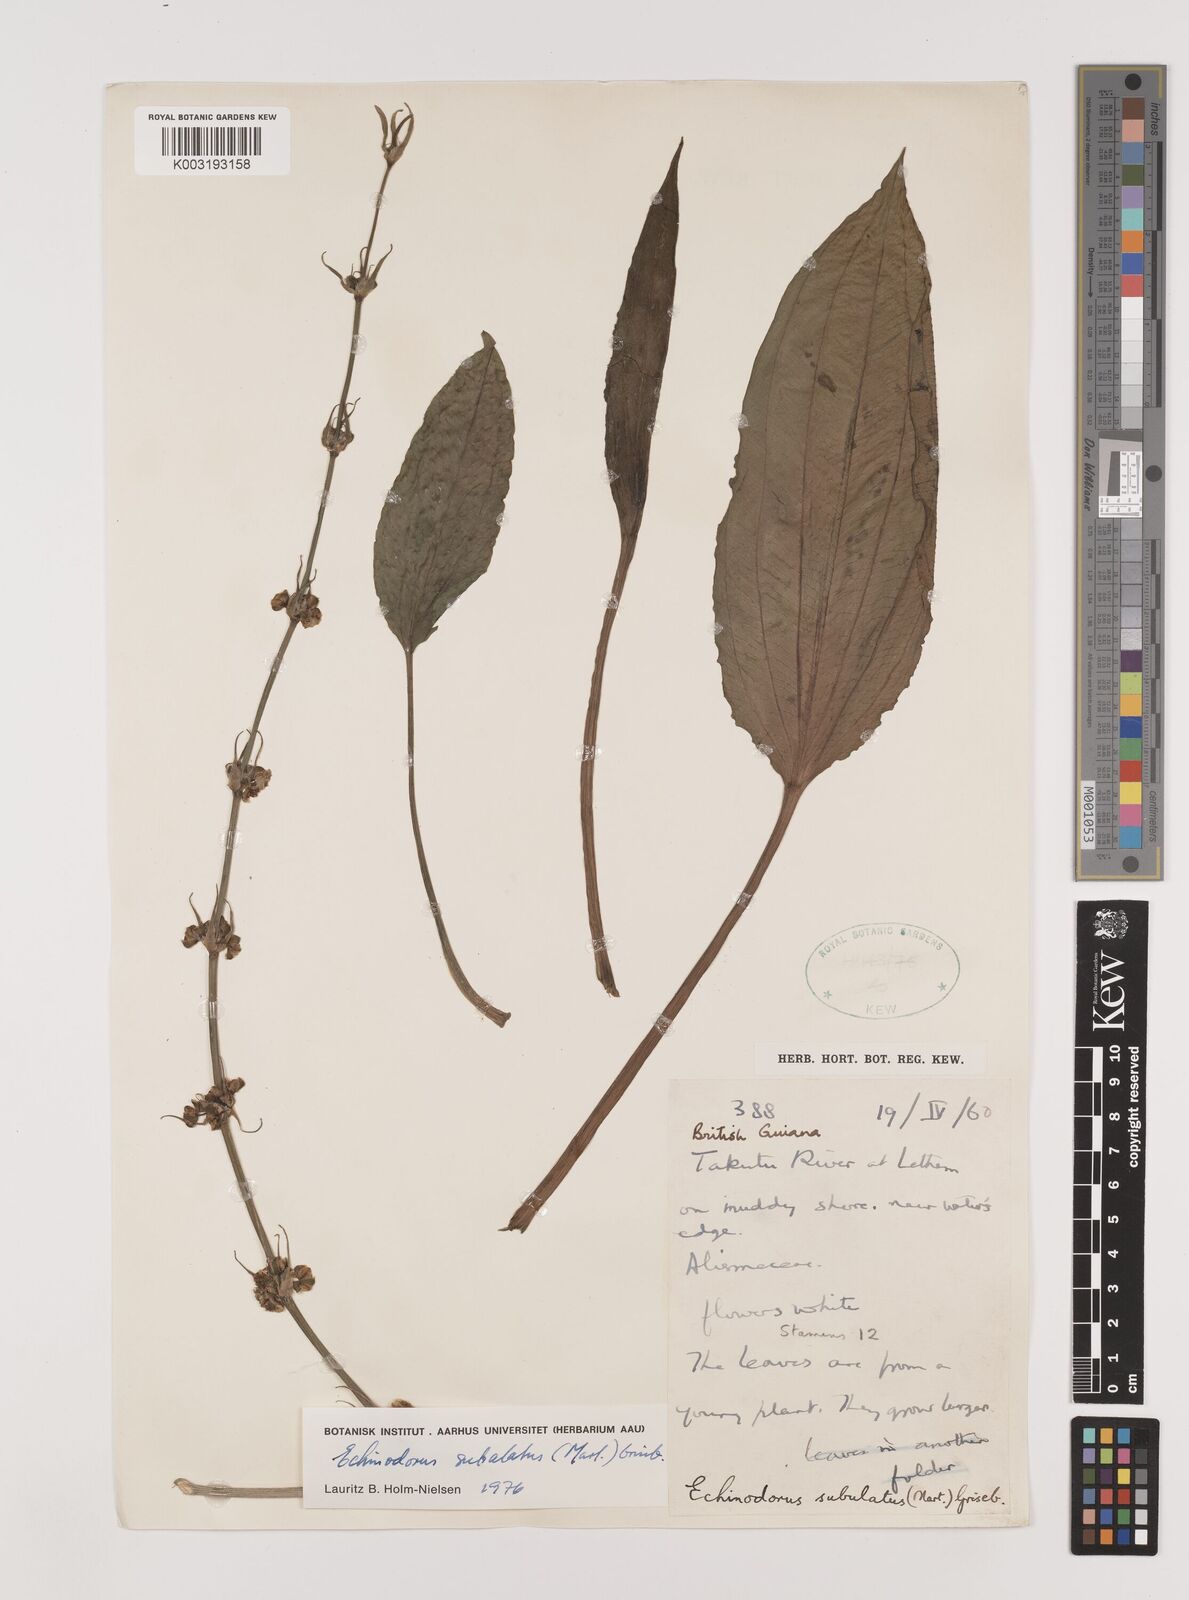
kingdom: Plantae
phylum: Tracheophyta
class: Liliopsida
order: Alismatales
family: Alismataceae
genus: Aquarius
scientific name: Aquarius subulatus
